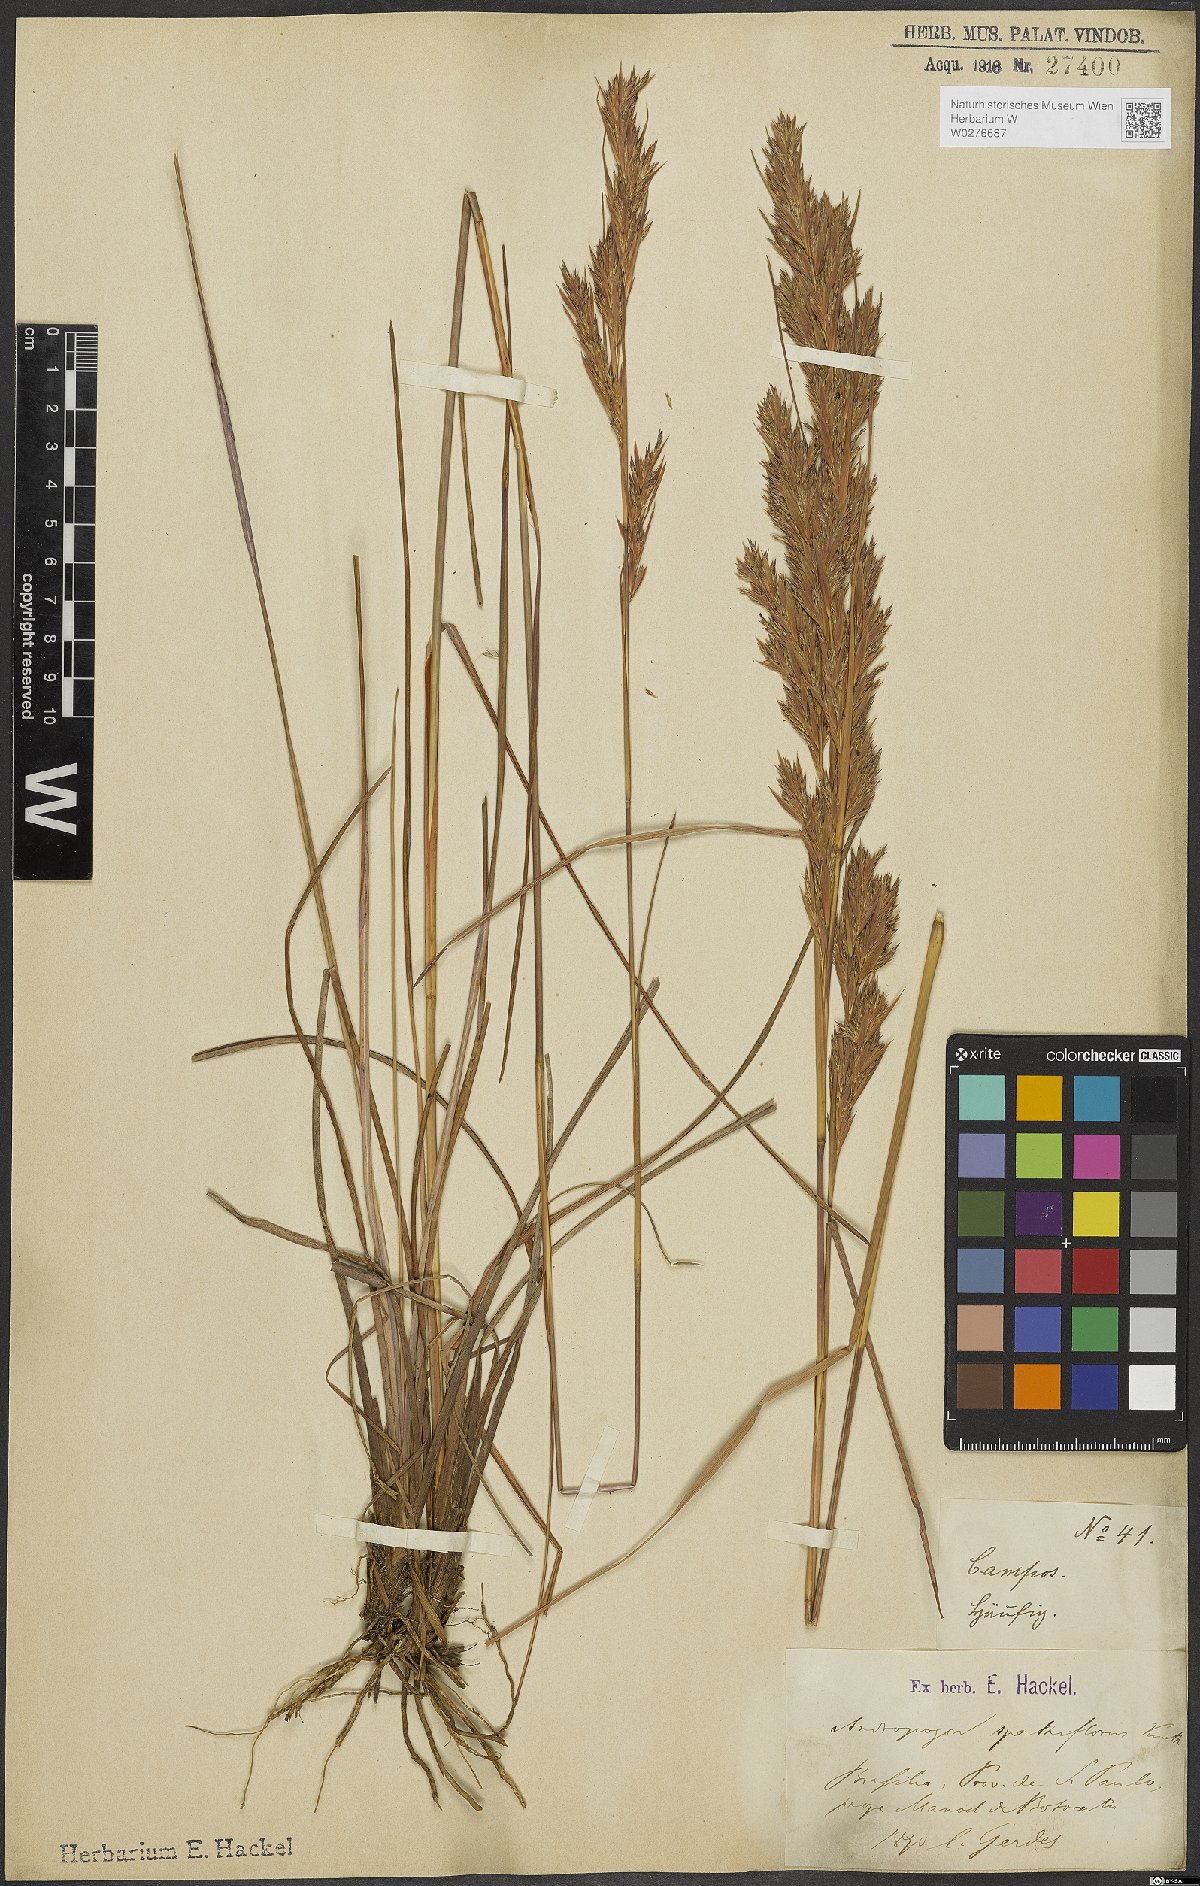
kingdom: Plantae
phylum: Tracheophyta
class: Liliopsida
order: Poales
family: Poaceae
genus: Andropogon
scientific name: Andropogon virgatus
